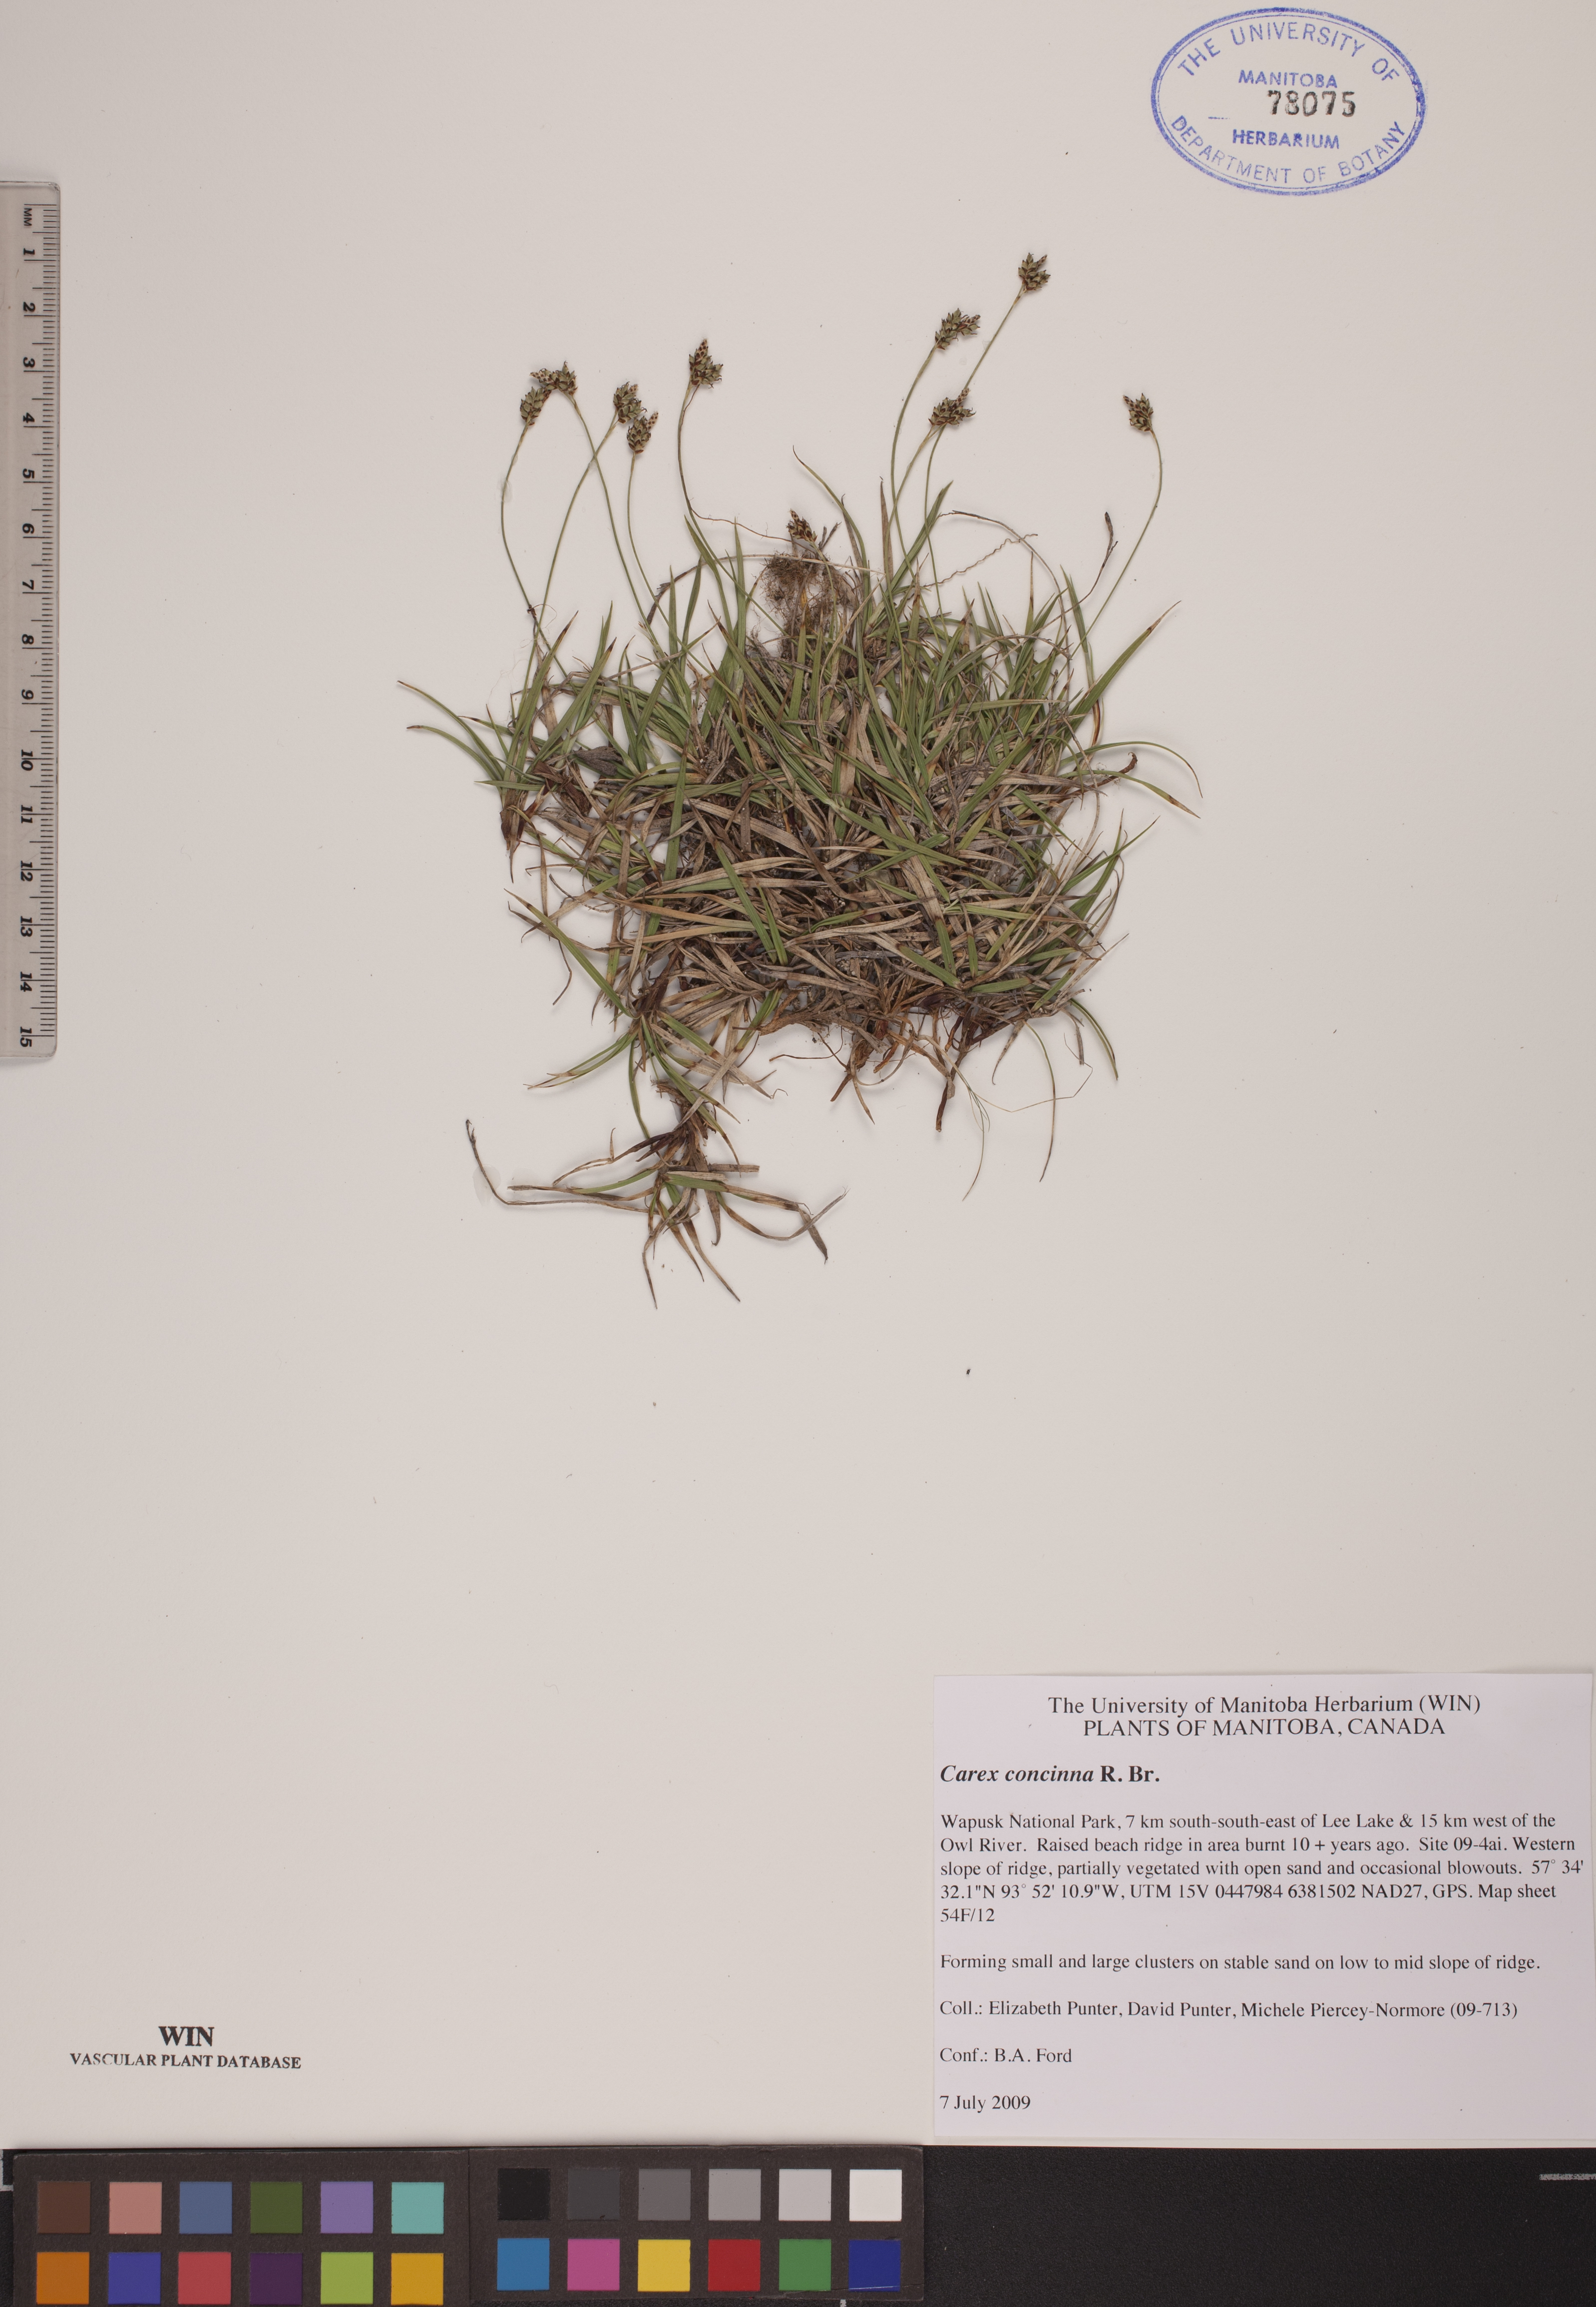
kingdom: Plantae
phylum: Tracheophyta
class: Liliopsida
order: Poales
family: Cyperaceae
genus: Carex
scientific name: Carex concinna
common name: Beautiful sedge
